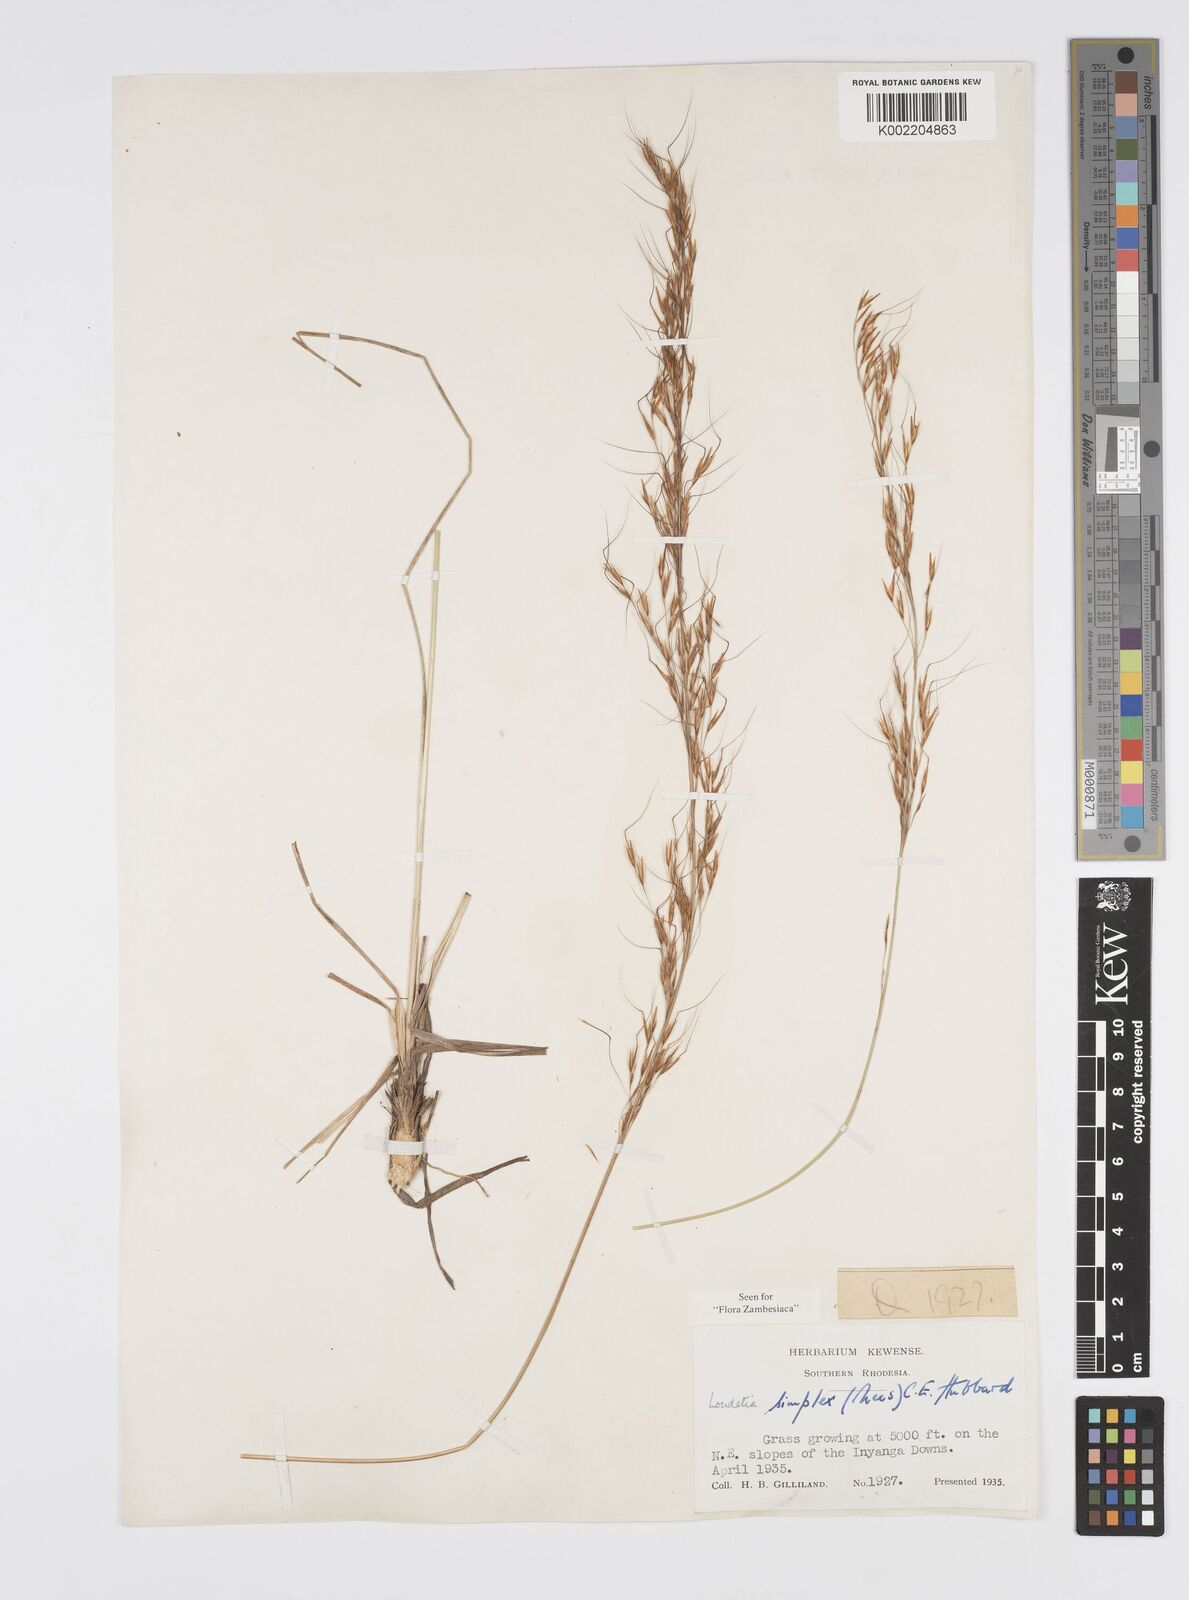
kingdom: Plantae
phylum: Tracheophyta
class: Liliopsida
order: Poales
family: Poaceae
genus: Loudetia
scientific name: Loudetia simplex
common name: Common russet grass
